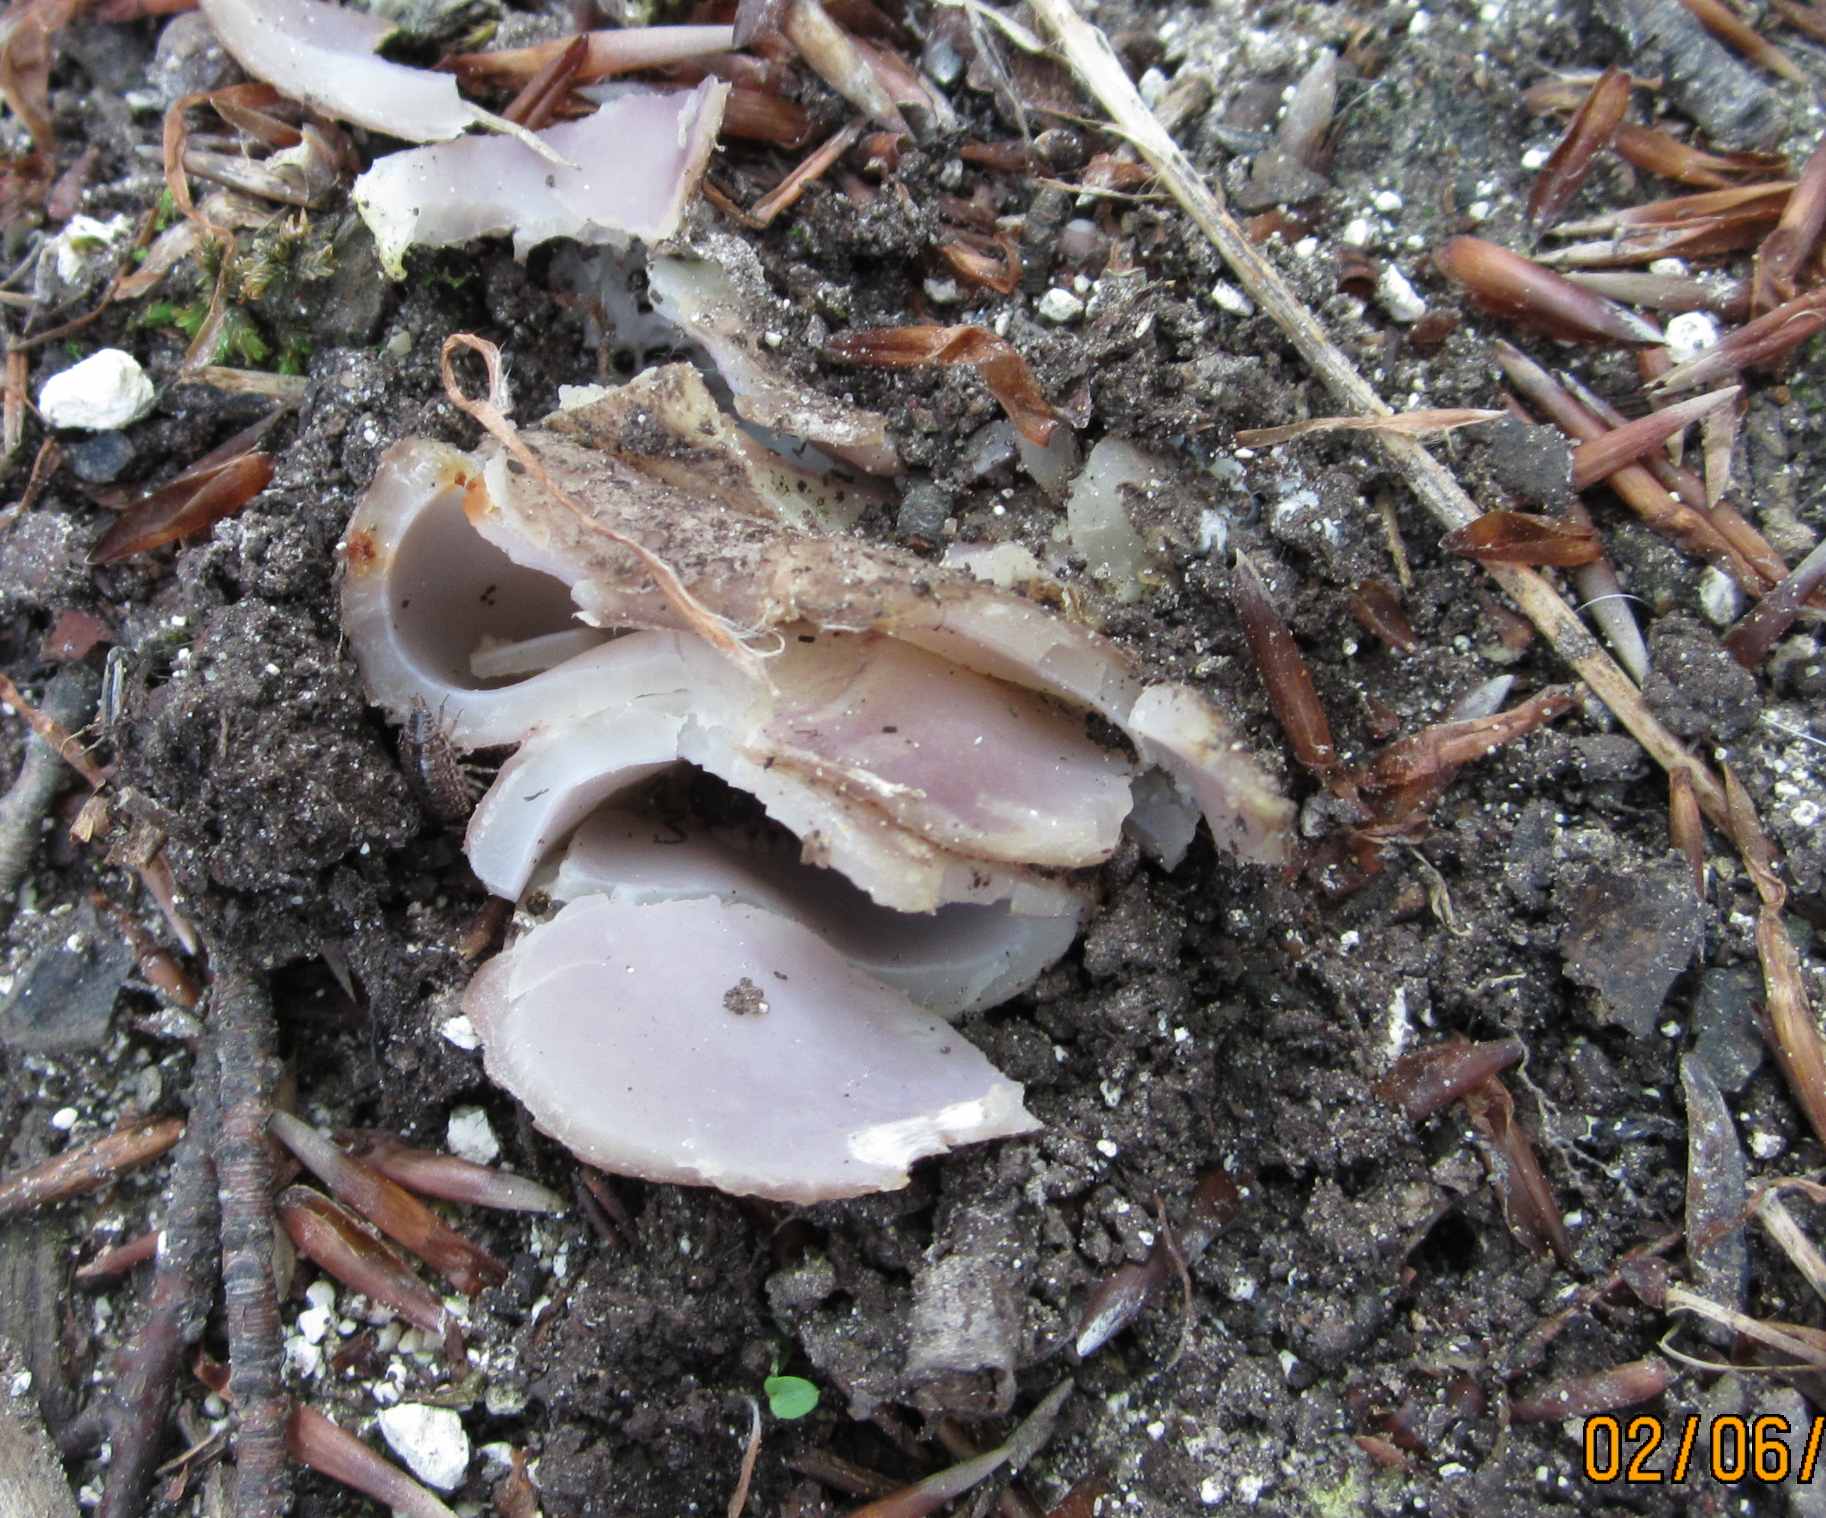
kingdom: Fungi
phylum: Ascomycota
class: Pezizomycetes
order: Pezizales
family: Pezizaceae
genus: Sarcosphaera
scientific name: Sarcosphaera coronaria
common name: stjernebæger
